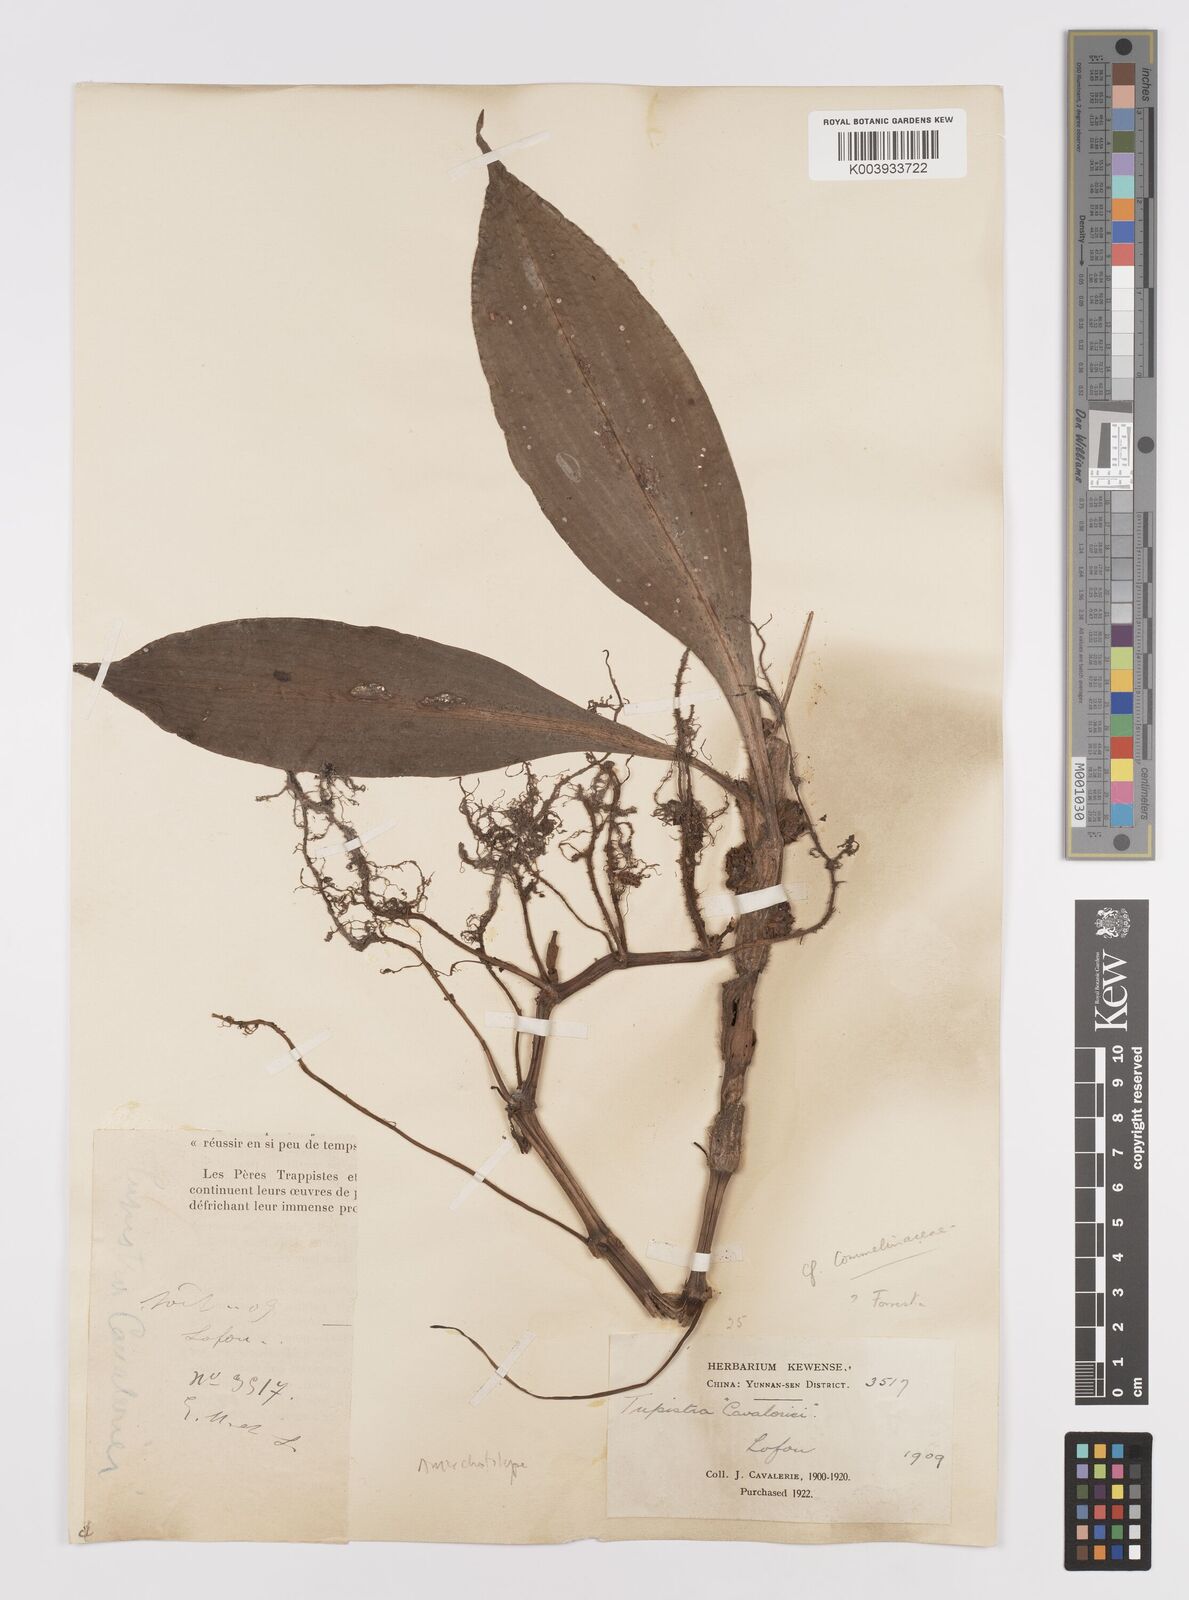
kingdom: Plantae
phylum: Tracheophyta
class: Liliopsida
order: Commelinales
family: Commelinaceae
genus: Amischotolype
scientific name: Amischotolype
